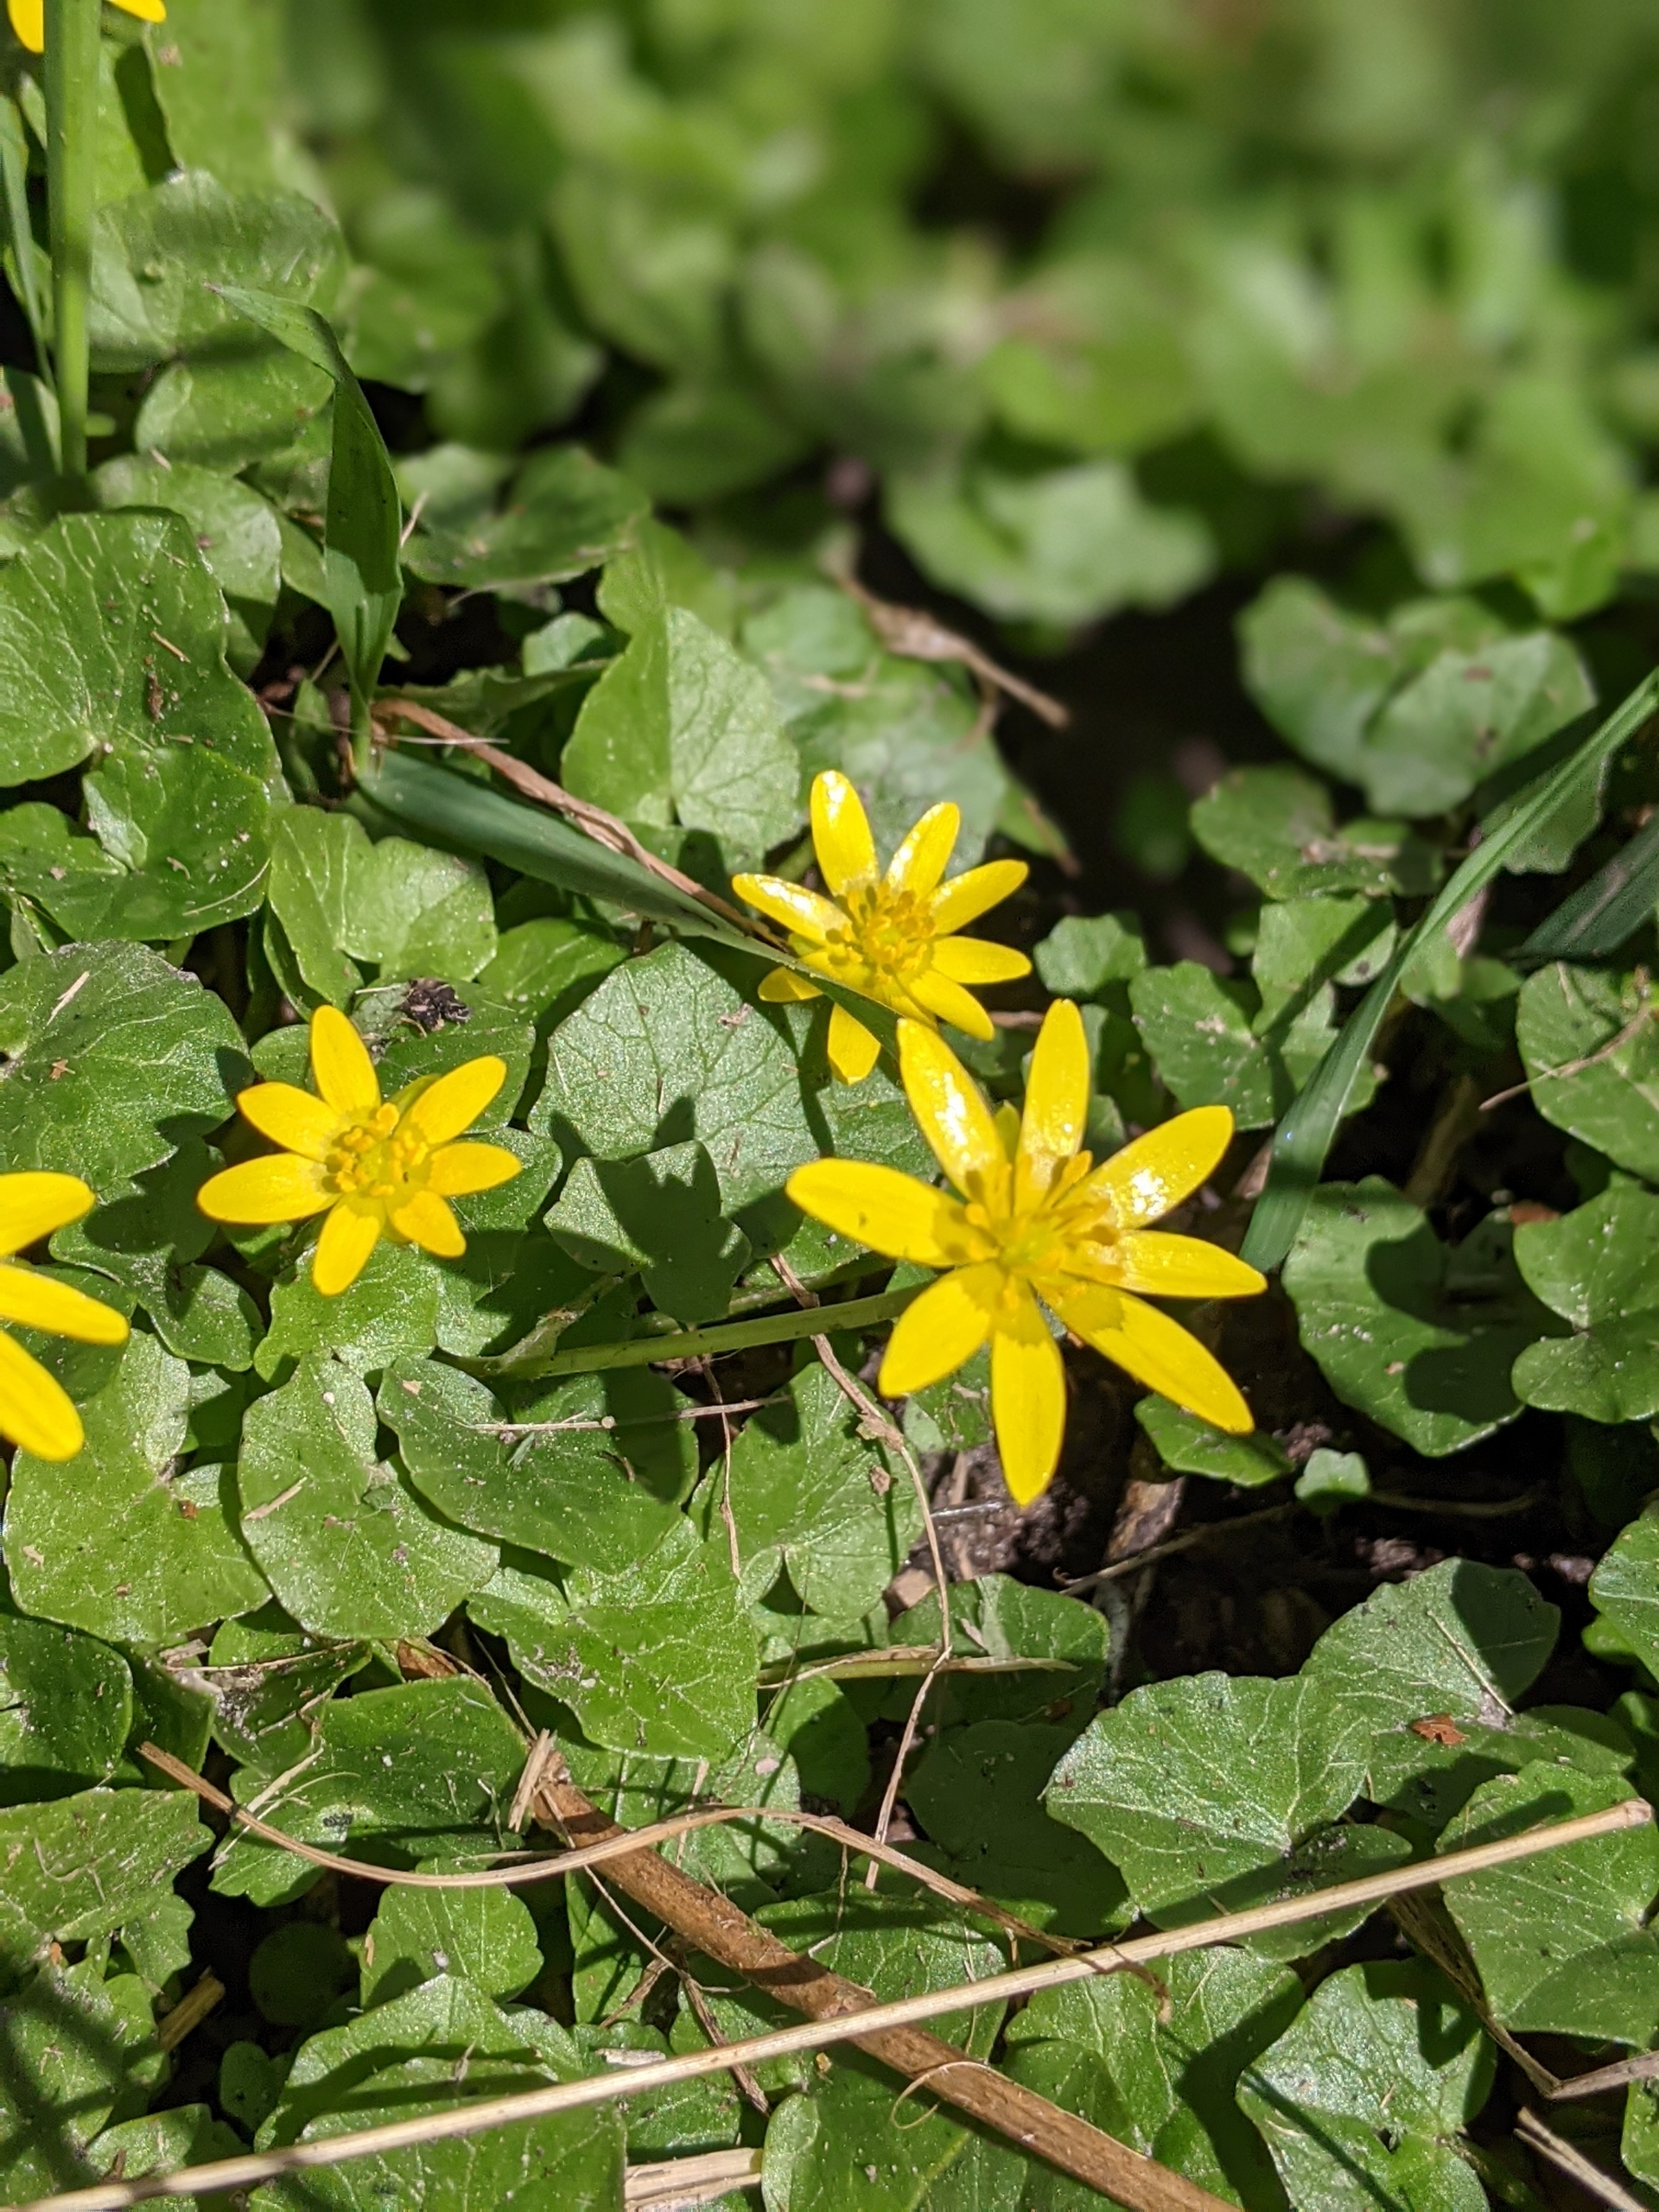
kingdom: Plantae
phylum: Tracheophyta
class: Magnoliopsida
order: Ranunculales
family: Ranunculaceae
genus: Ficaria
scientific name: Ficaria verna
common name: Vorterod
